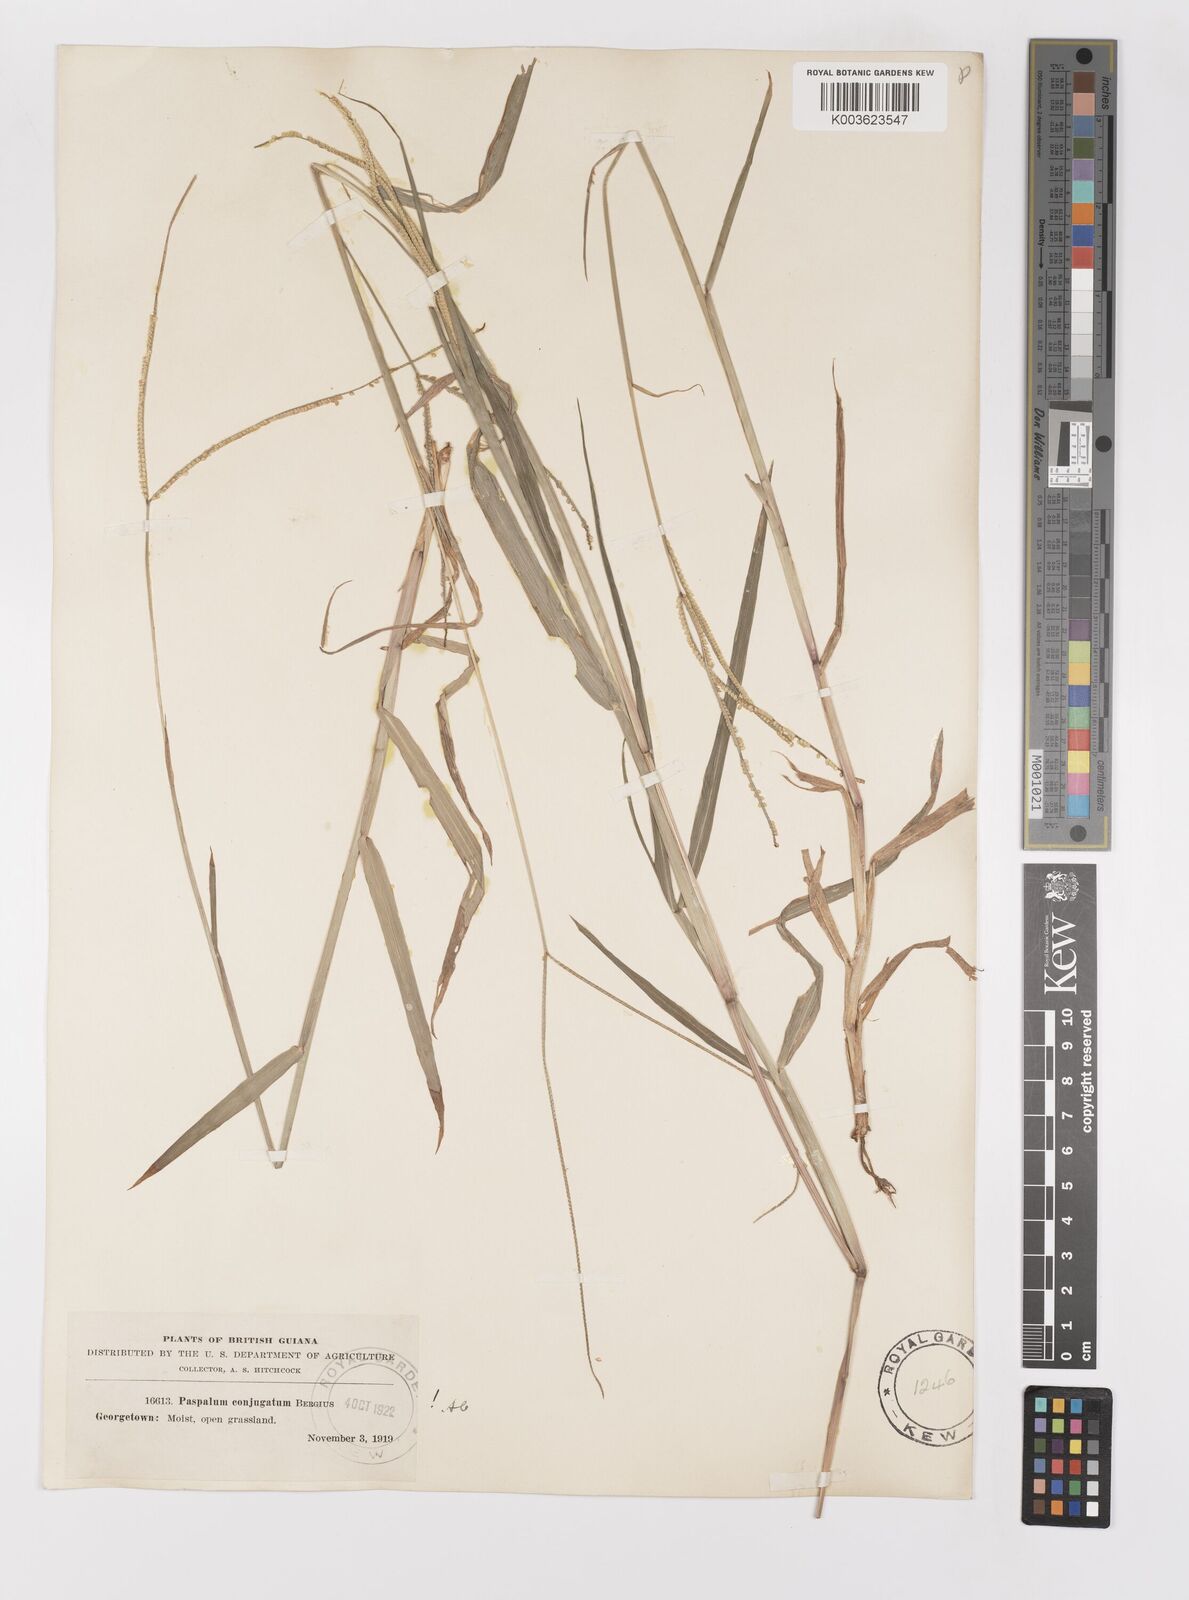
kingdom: Plantae
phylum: Tracheophyta
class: Liliopsida
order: Poales
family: Poaceae
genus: Paspalum
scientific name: Paspalum conjugatum
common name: Hilograss
